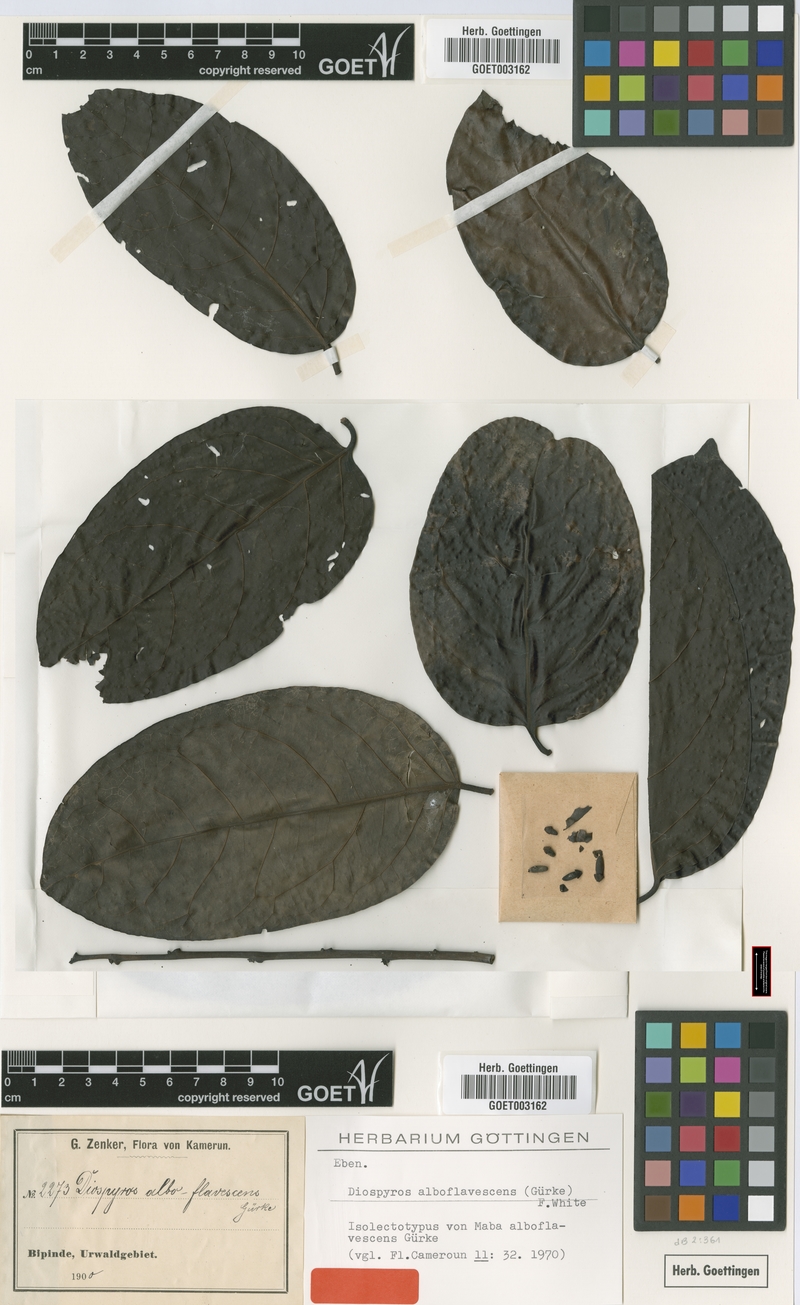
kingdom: Plantae
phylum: Tracheophyta
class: Magnoliopsida
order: Ericales
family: Ebenaceae
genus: Diospyros
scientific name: Diospyros alboflavescens
